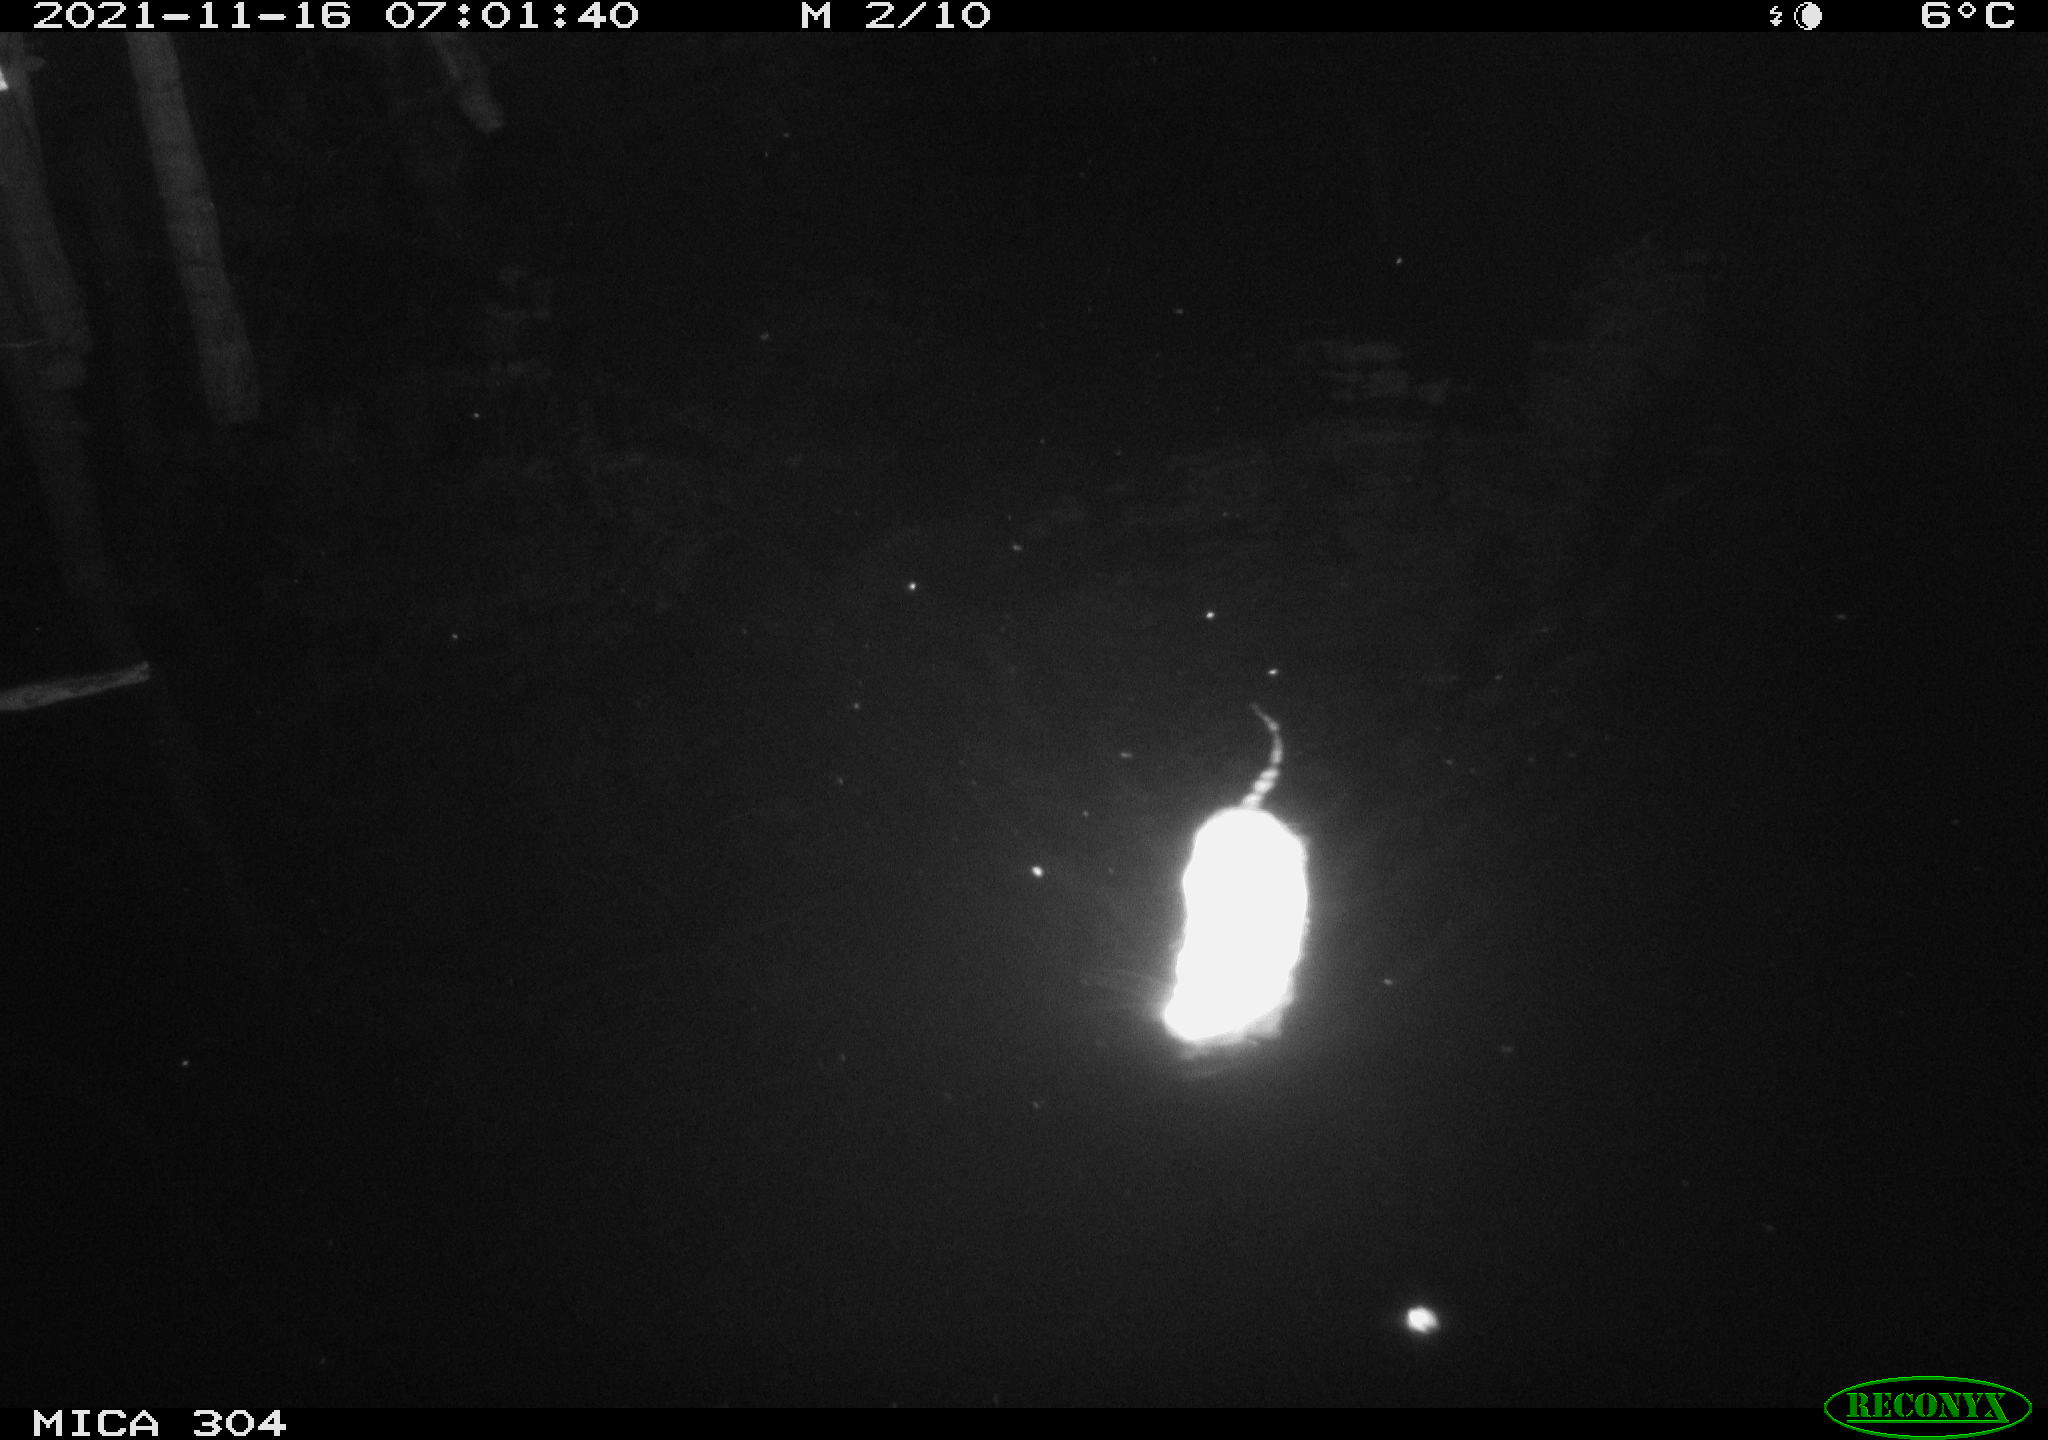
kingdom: Animalia
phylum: Chordata
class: Mammalia
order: Rodentia
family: Muridae
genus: Rattus
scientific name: Rattus norvegicus
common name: Brown rat
